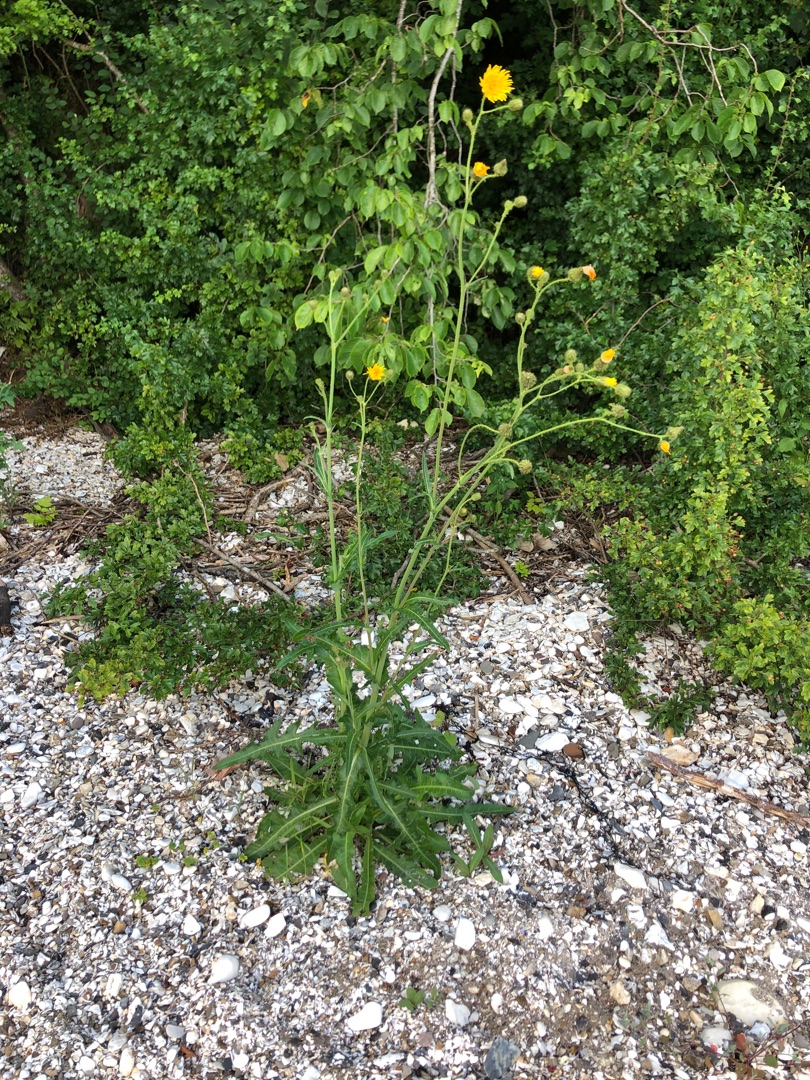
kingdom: Plantae
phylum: Tracheophyta
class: Magnoliopsida
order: Asterales
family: Asteraceae
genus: Sonchus
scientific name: Sonchus arvensis
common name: Ager-svinemælk
